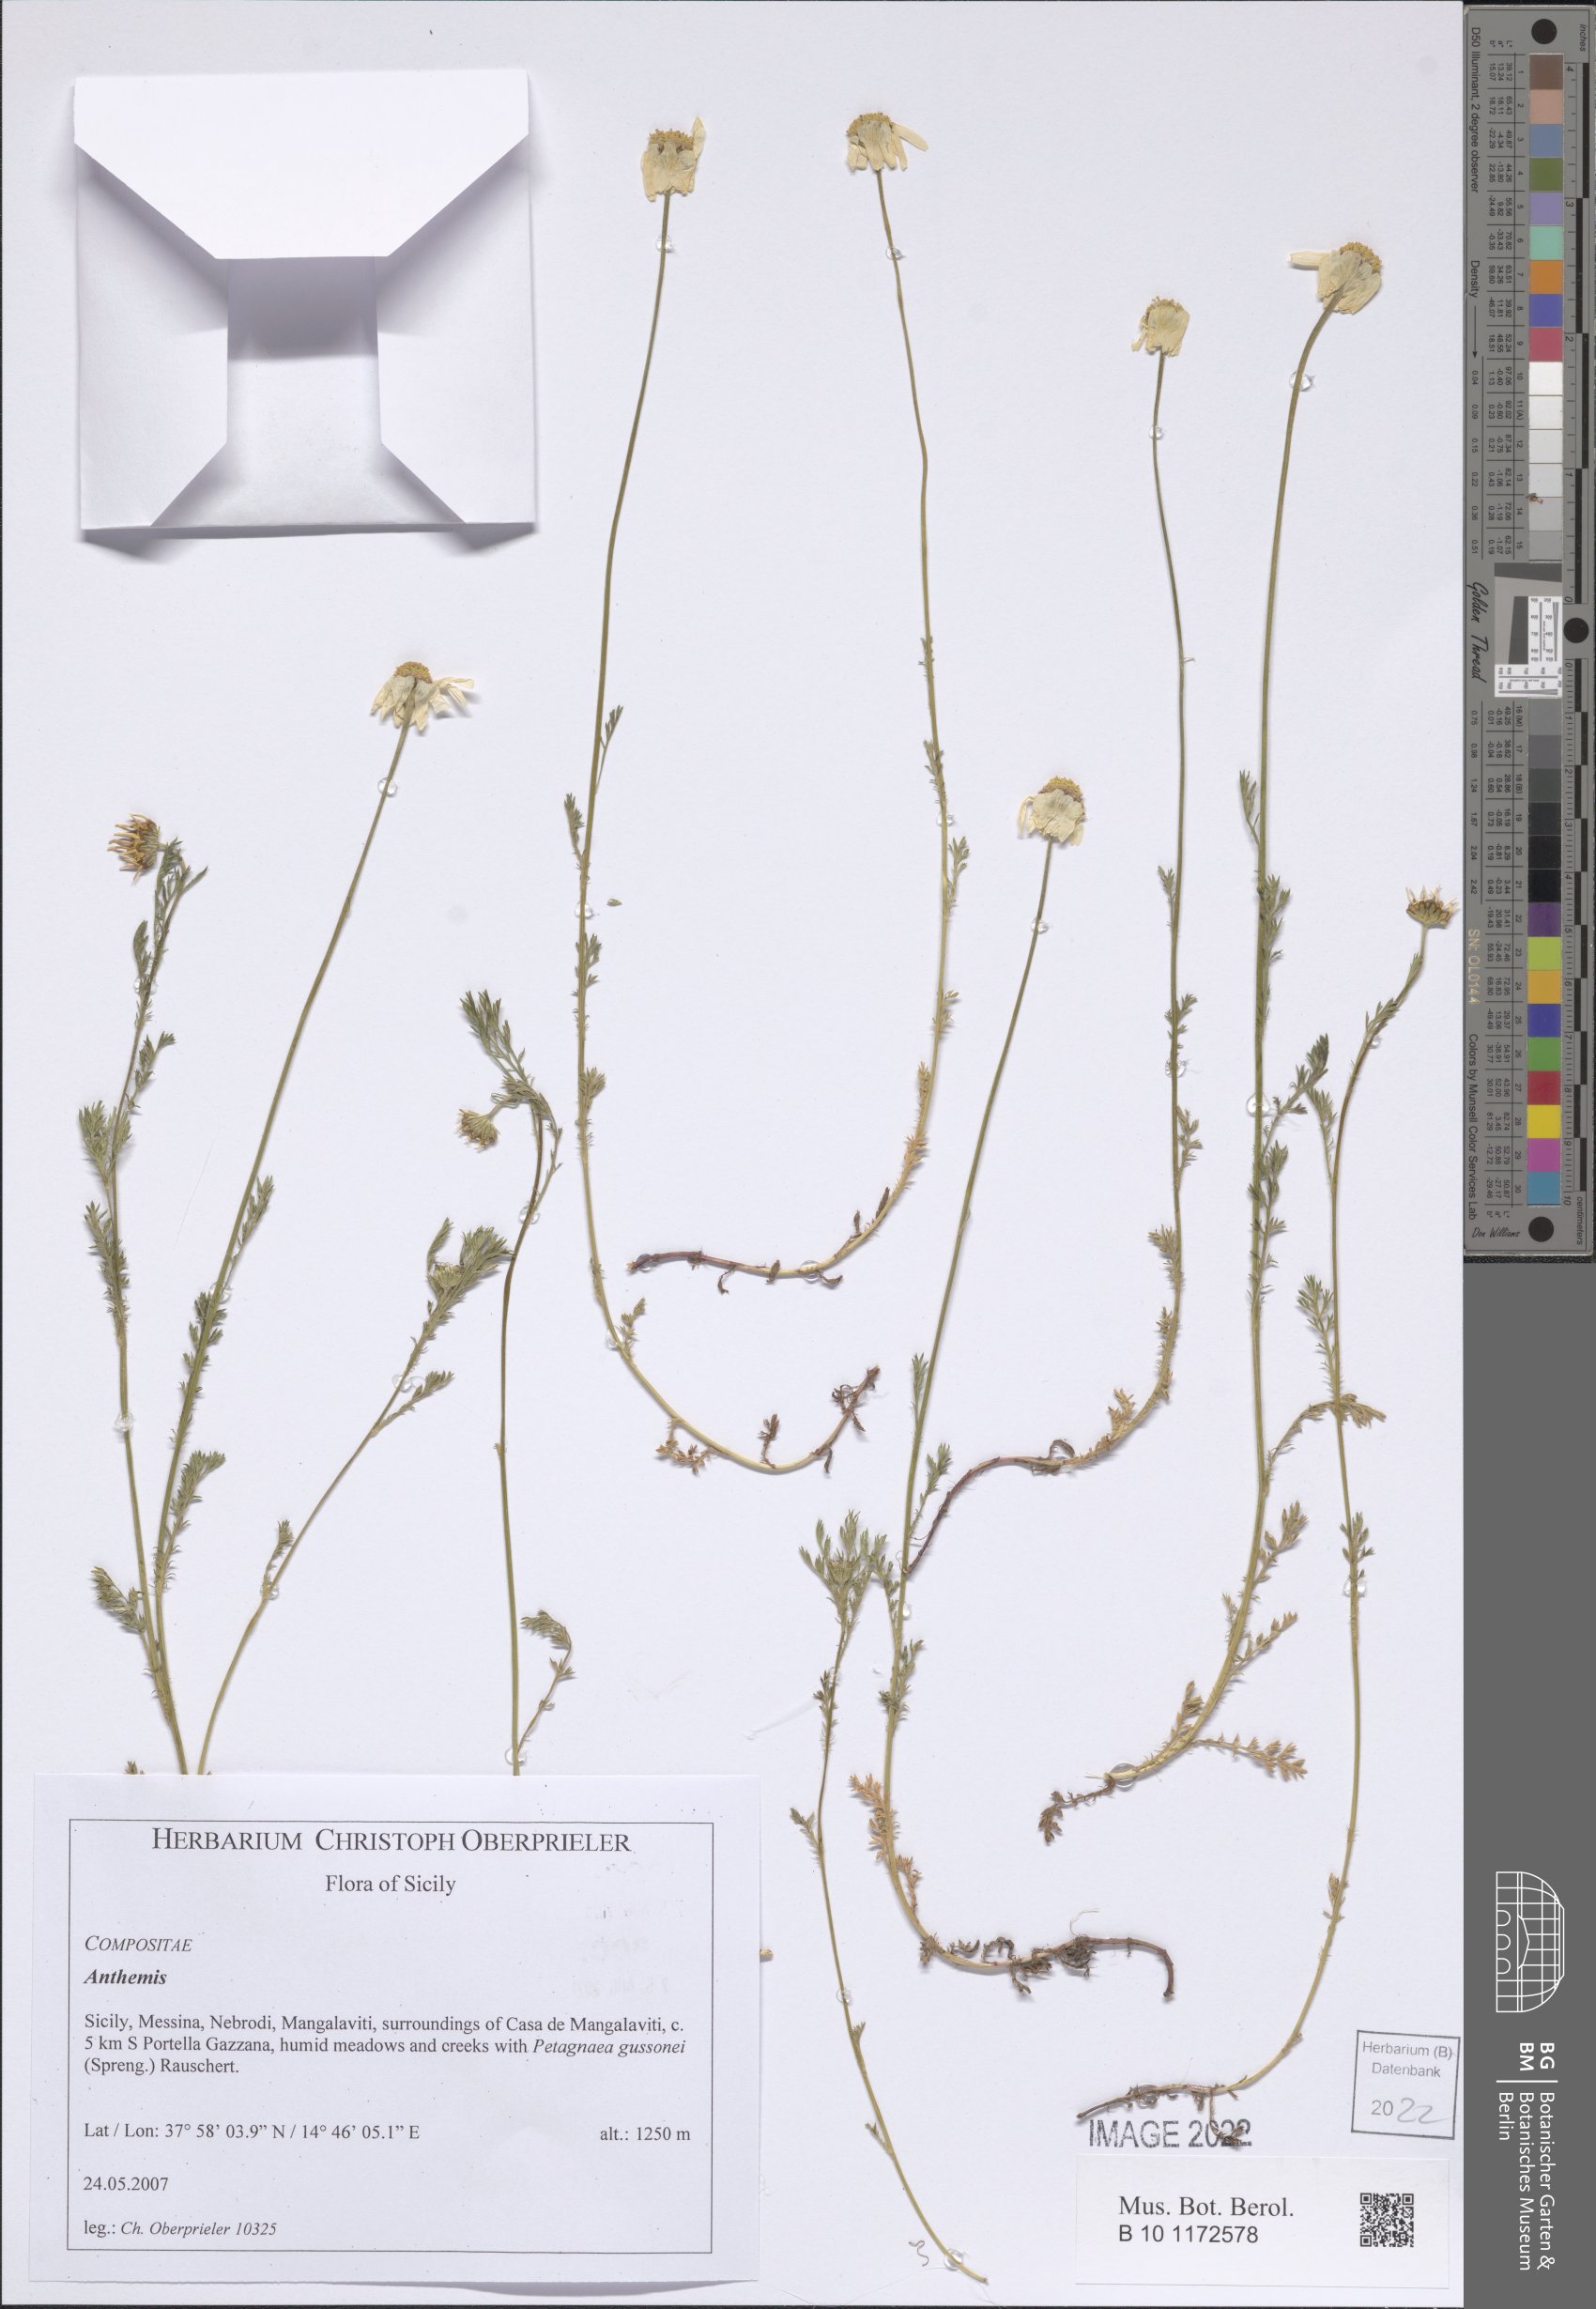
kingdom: Plantae
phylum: Tracheophyta
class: Magnoliopsida
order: Asterales
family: Asteraceae
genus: Anthemis
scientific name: Anthemis
